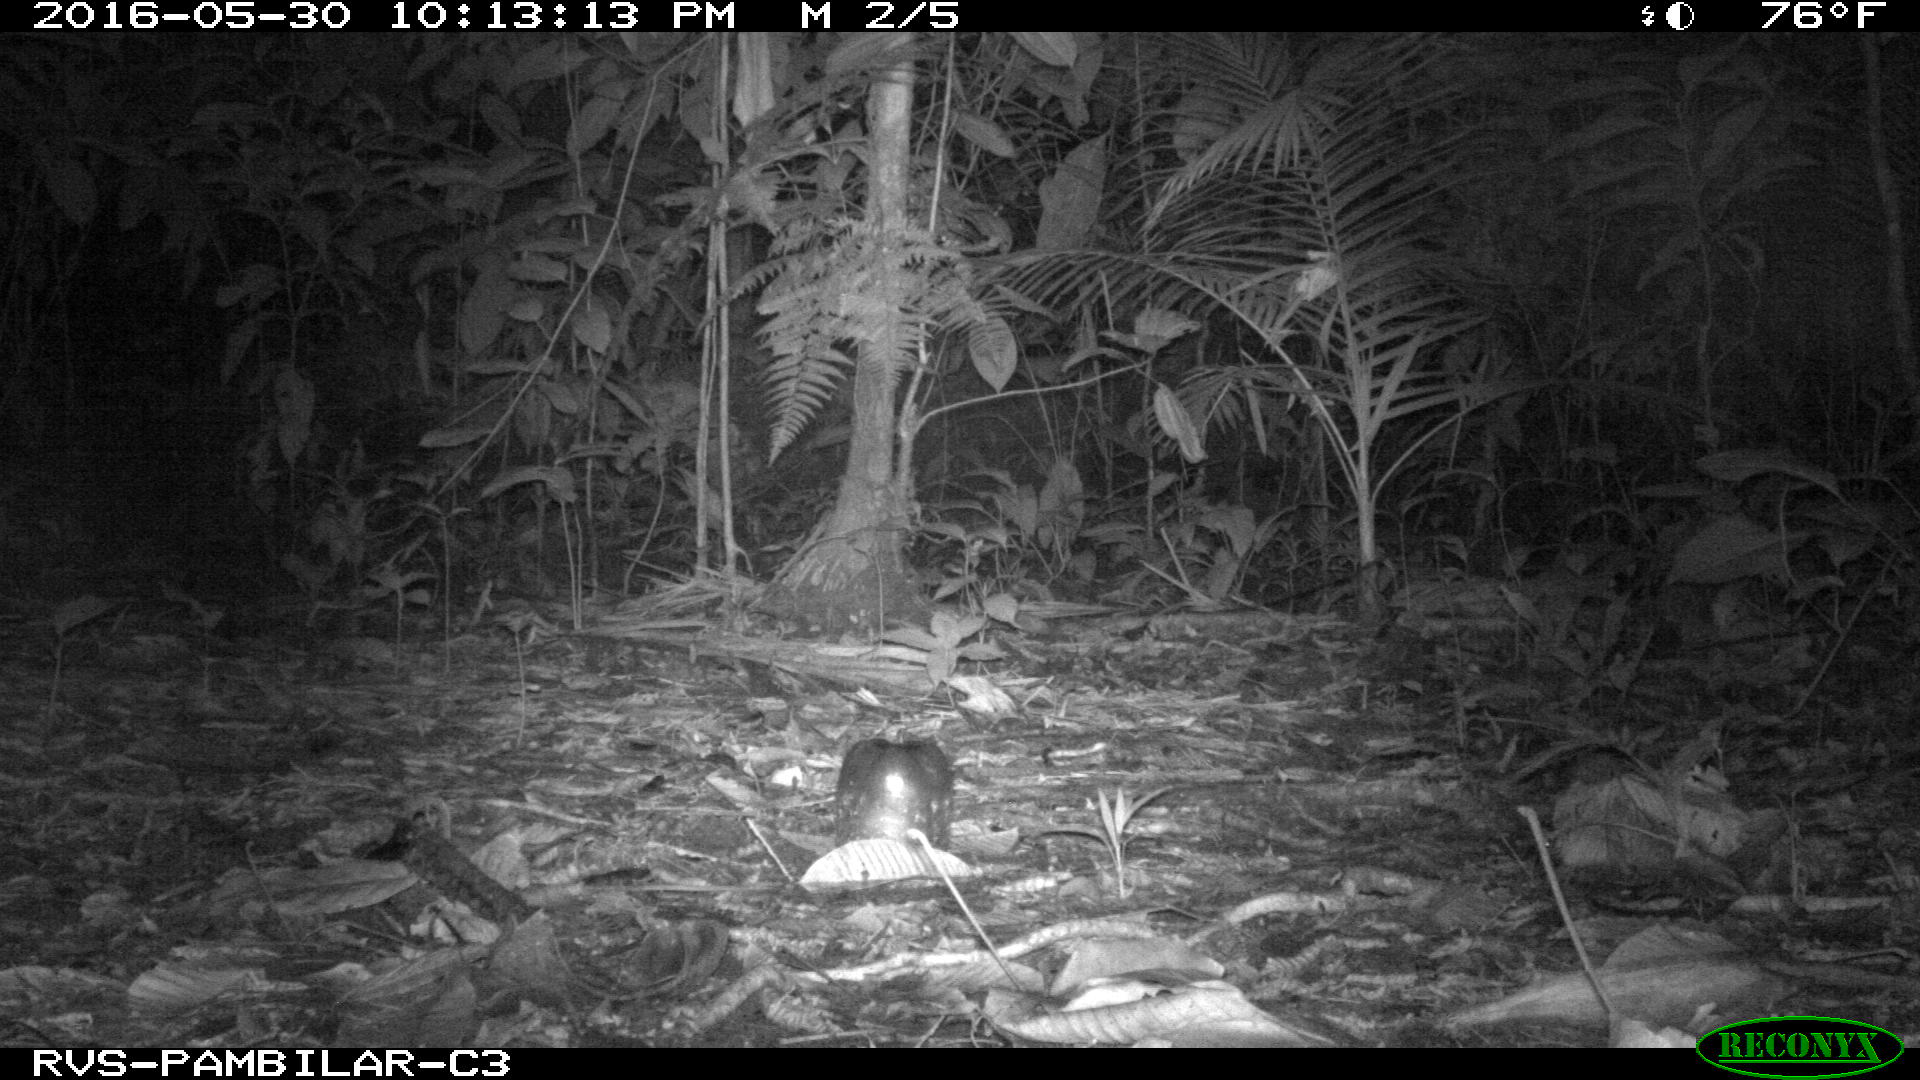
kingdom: Animalia
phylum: Chordata
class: Mammalia
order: Carnivora
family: Felidae
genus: Leopardus
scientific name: Leopardus pardalis
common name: Ocelot
